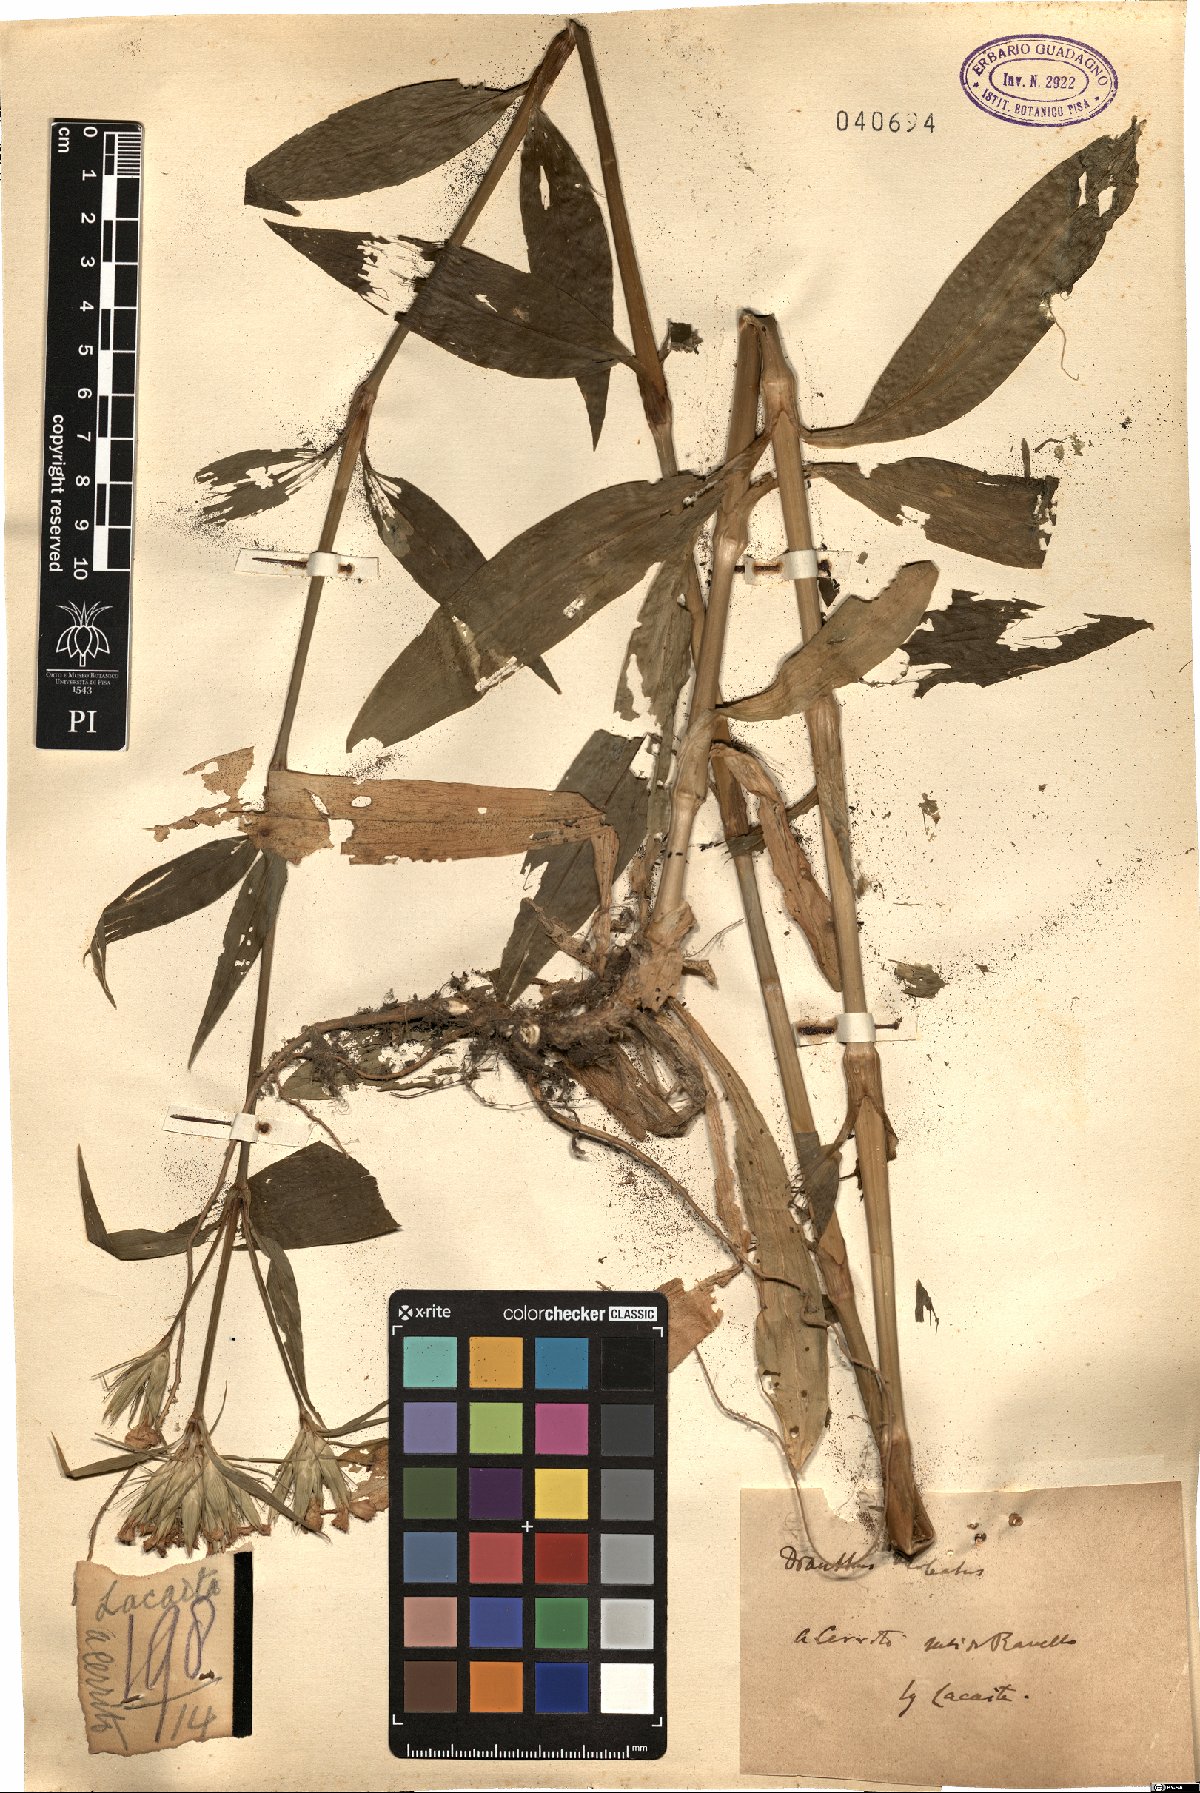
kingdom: Plantae
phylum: Tracheophyta
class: Magnoliopsida
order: Caryophyllales
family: Caryophyllaceae
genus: Dianthus
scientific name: Dianthus barbatus
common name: Sweet-william
